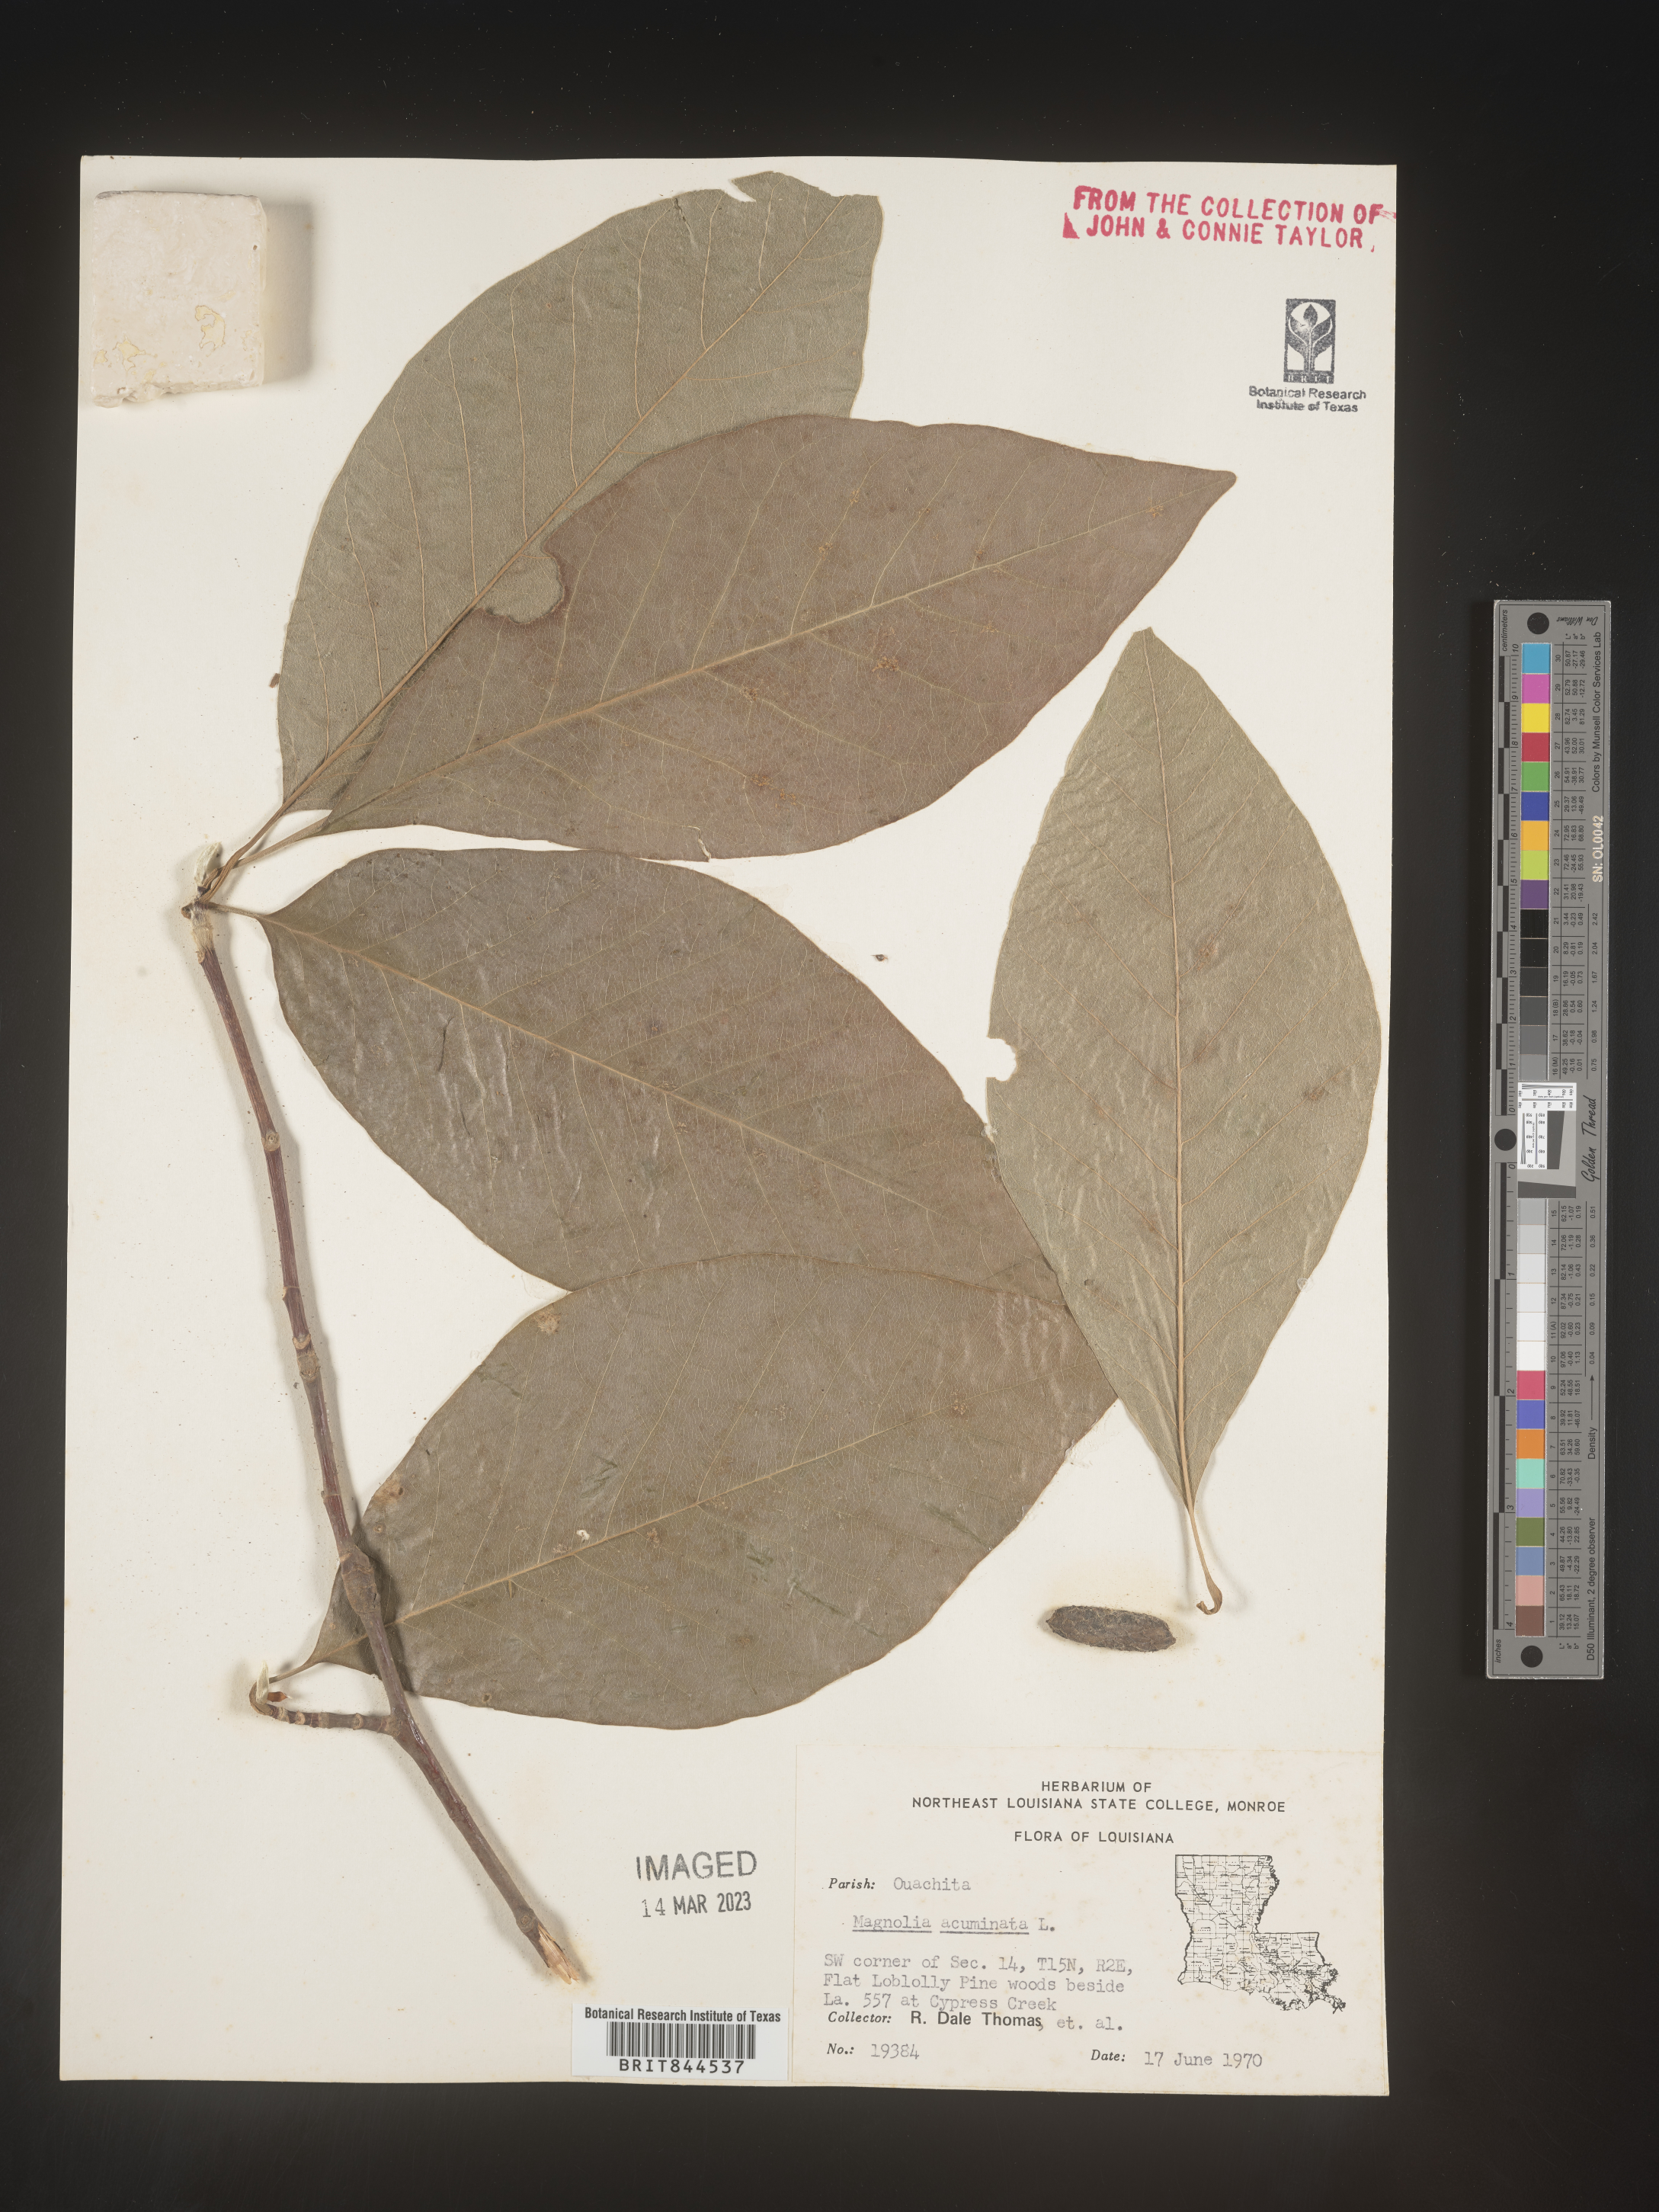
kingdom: Plantae
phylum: Tracheophyta
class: Magnoliopsida
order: Magnoliales
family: Magnoliaceae
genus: Magnolia
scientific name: Magnolia acuminata
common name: Cucumber magnolia
